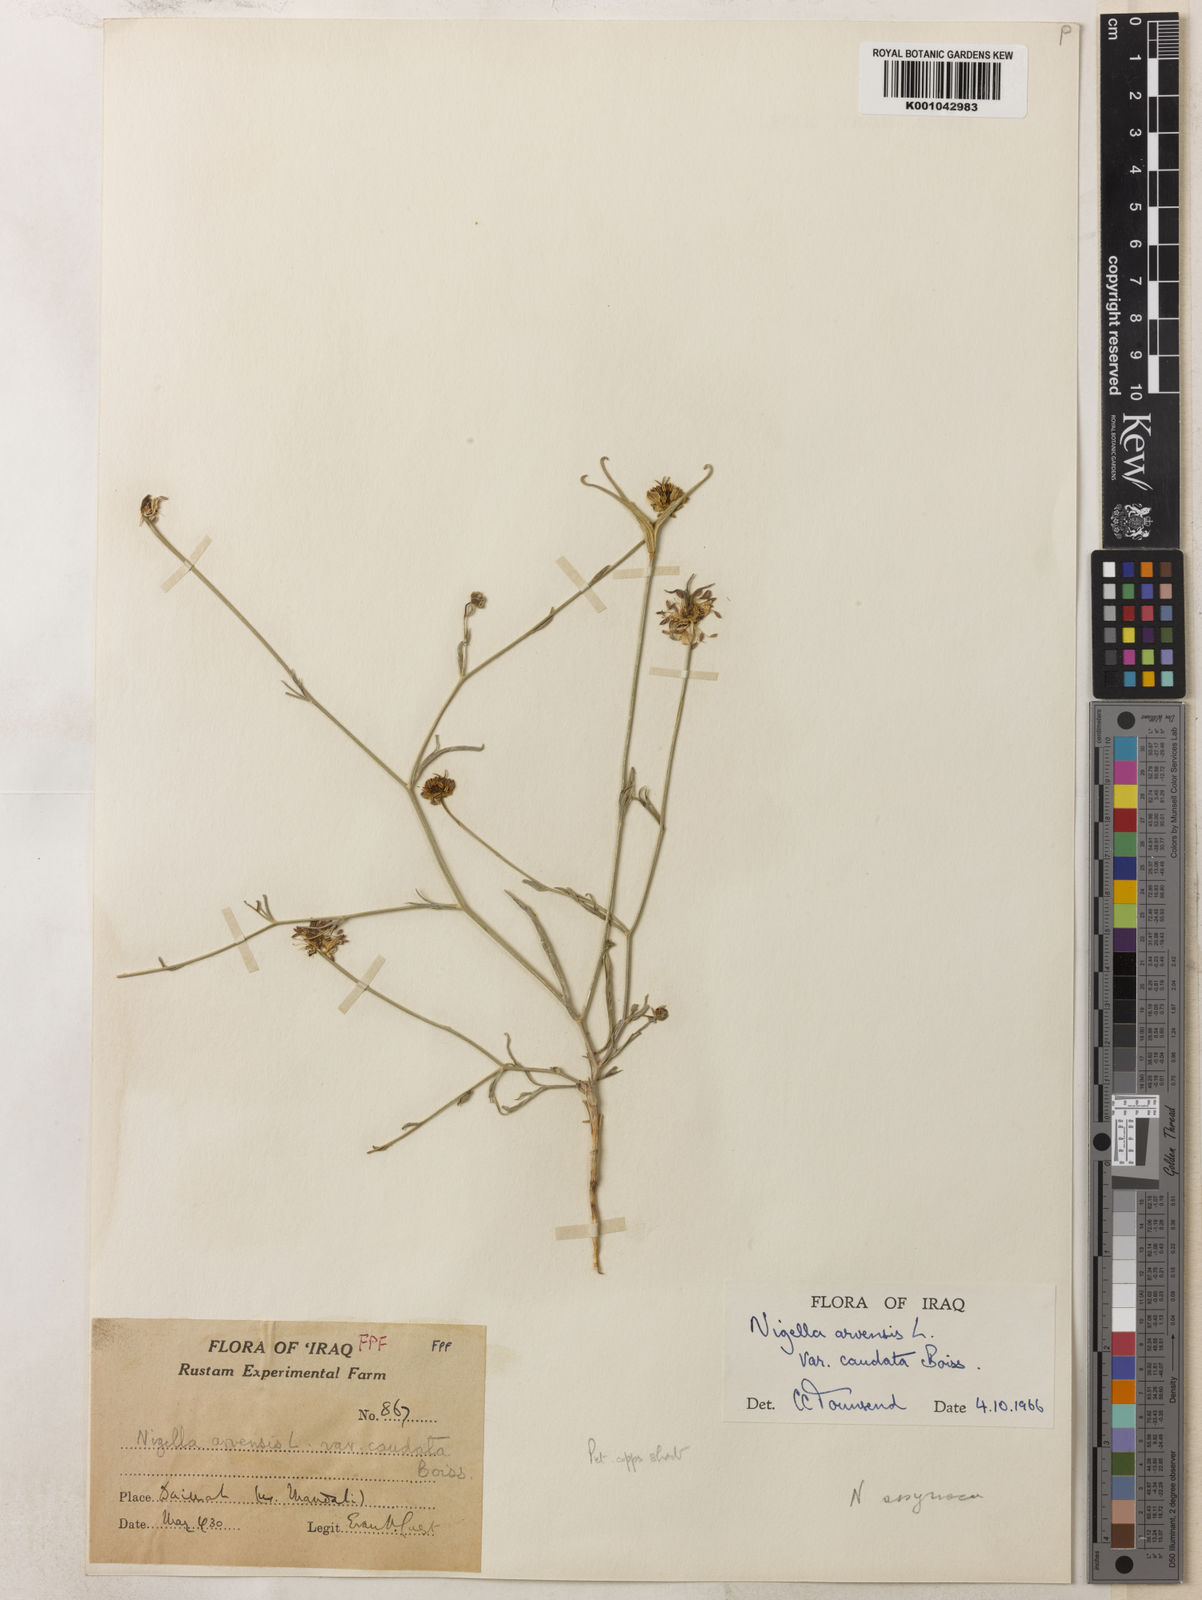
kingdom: Plantae
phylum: Tracheophyta
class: Magnoliopsida
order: Ranunculales
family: Ranunculaceae
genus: Nigella
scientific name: Nigella arvensis
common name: Wild fennel-flower
